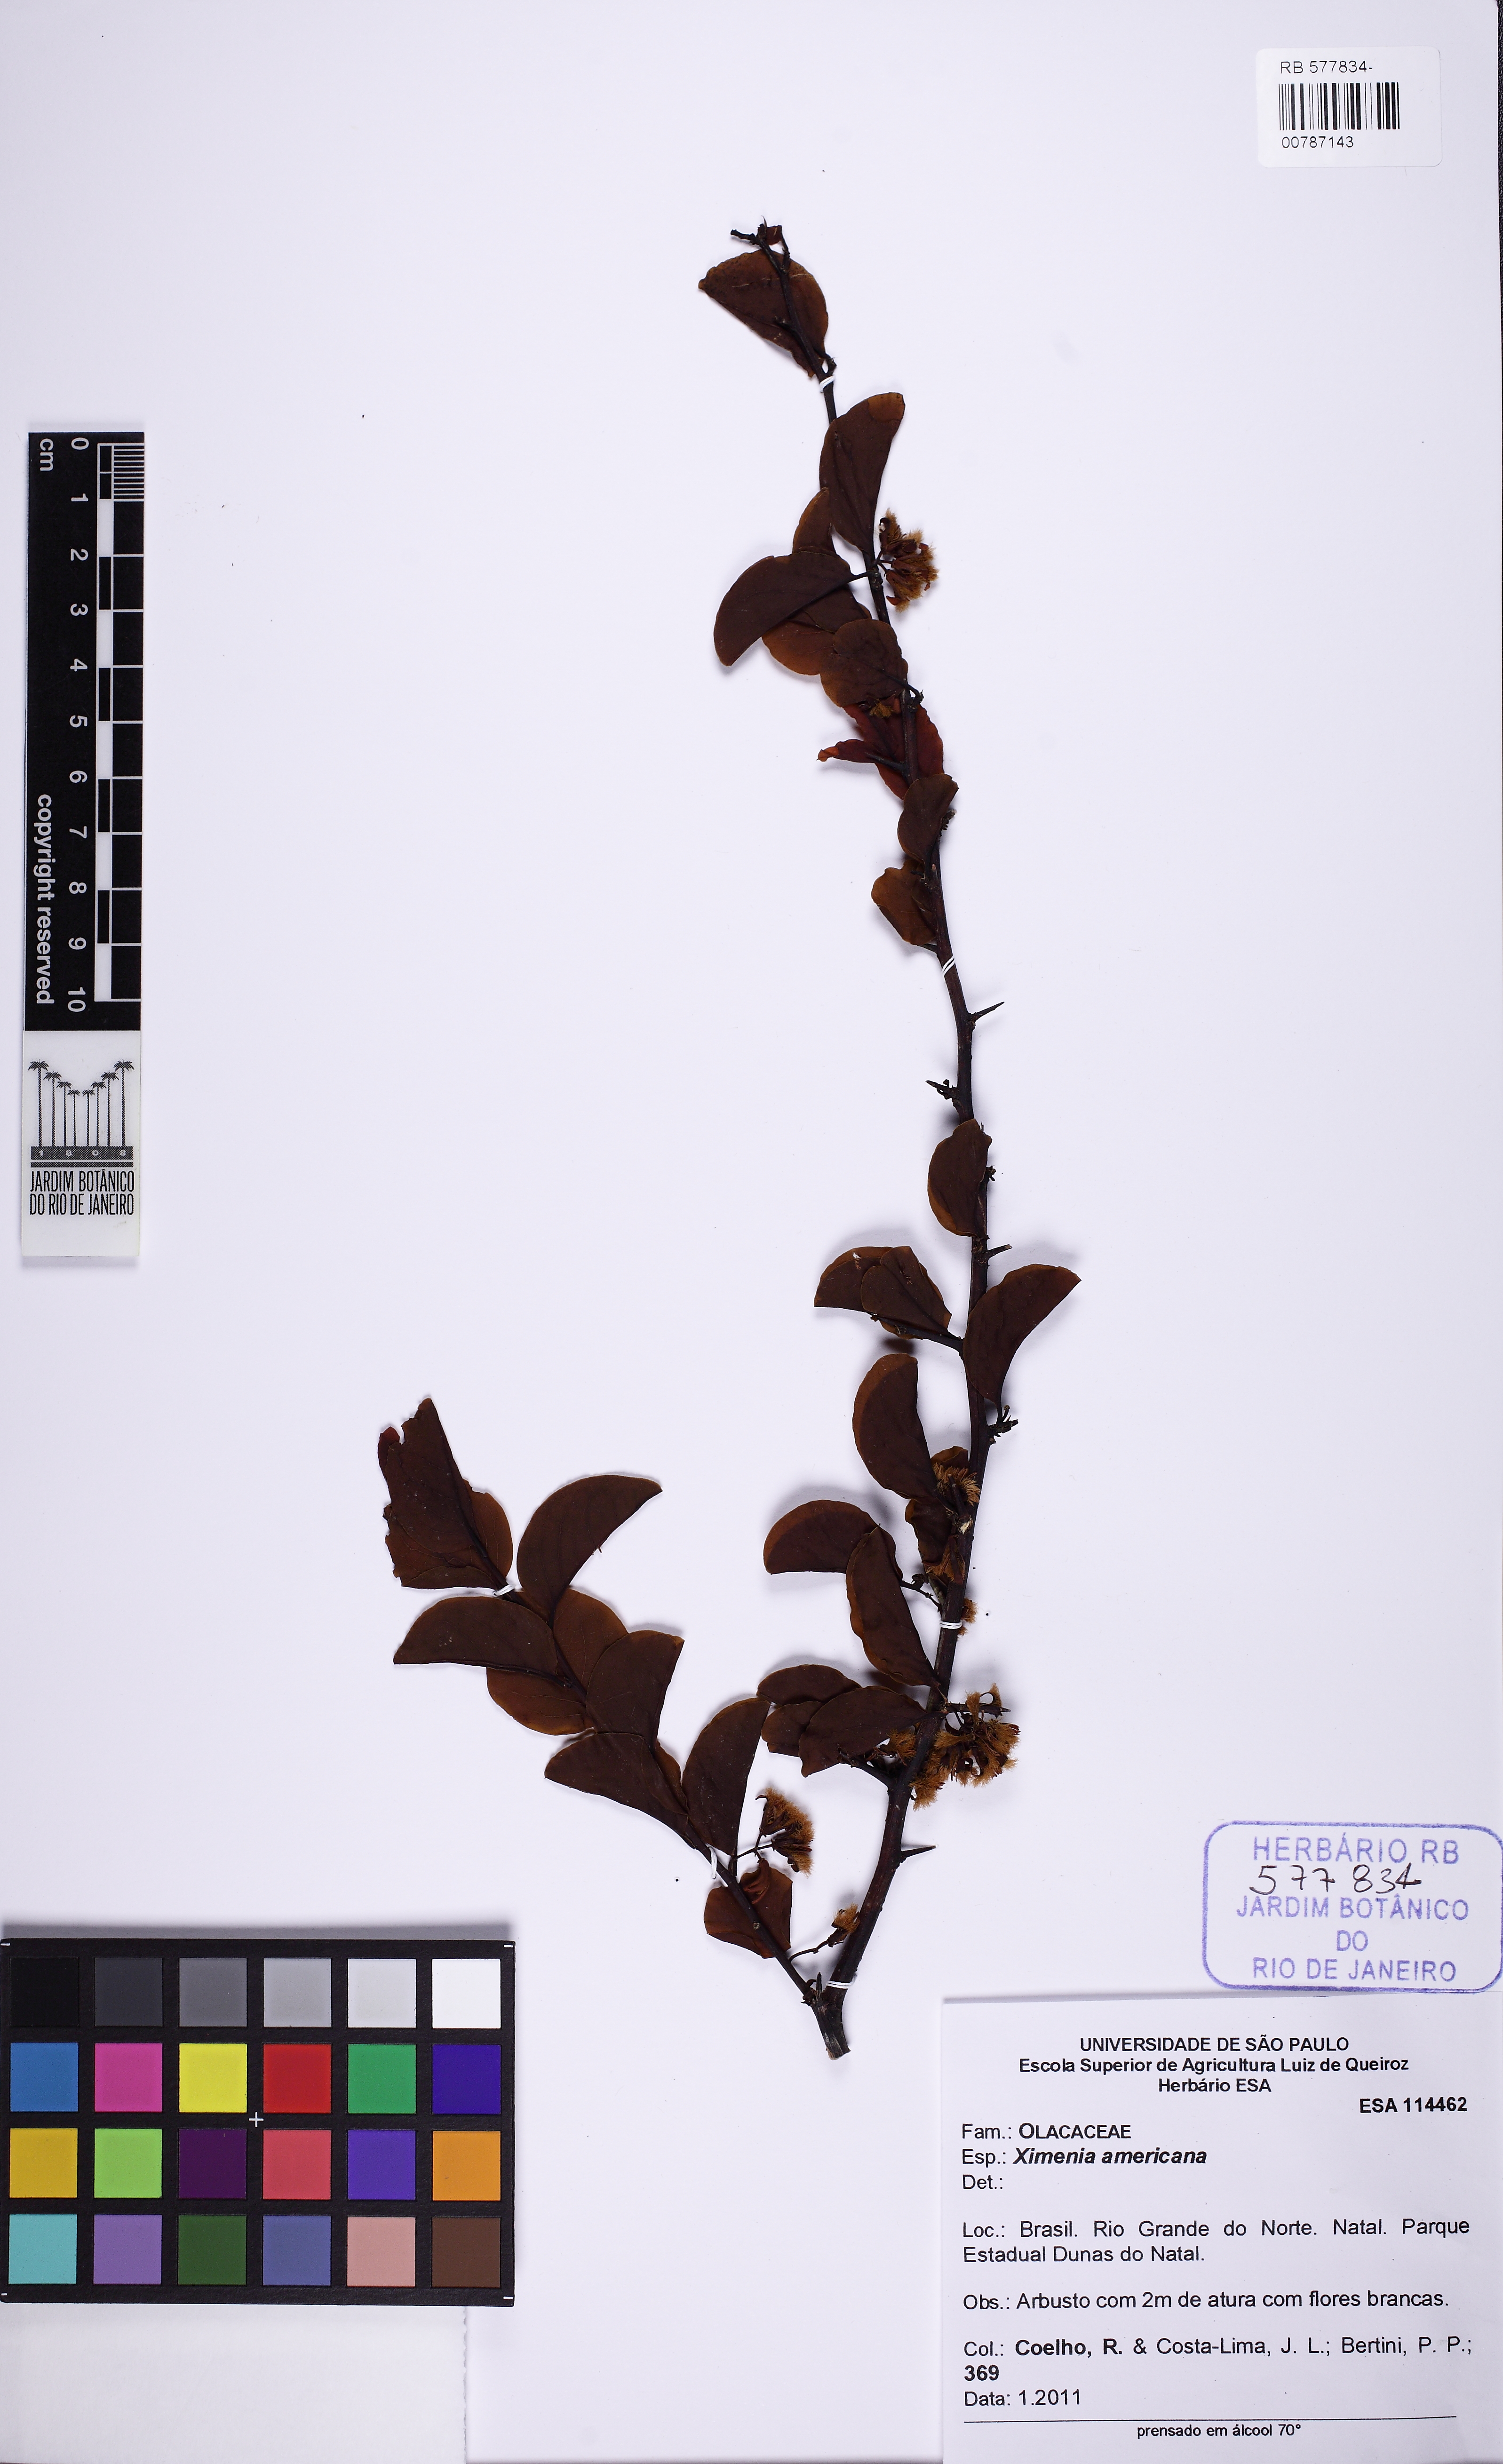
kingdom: Plantae
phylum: Tracheophyta
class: Magnoliopsida
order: Santalales
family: Ximeniaceae
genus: Ximenia
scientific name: Ximenia americana
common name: Tallowwood
